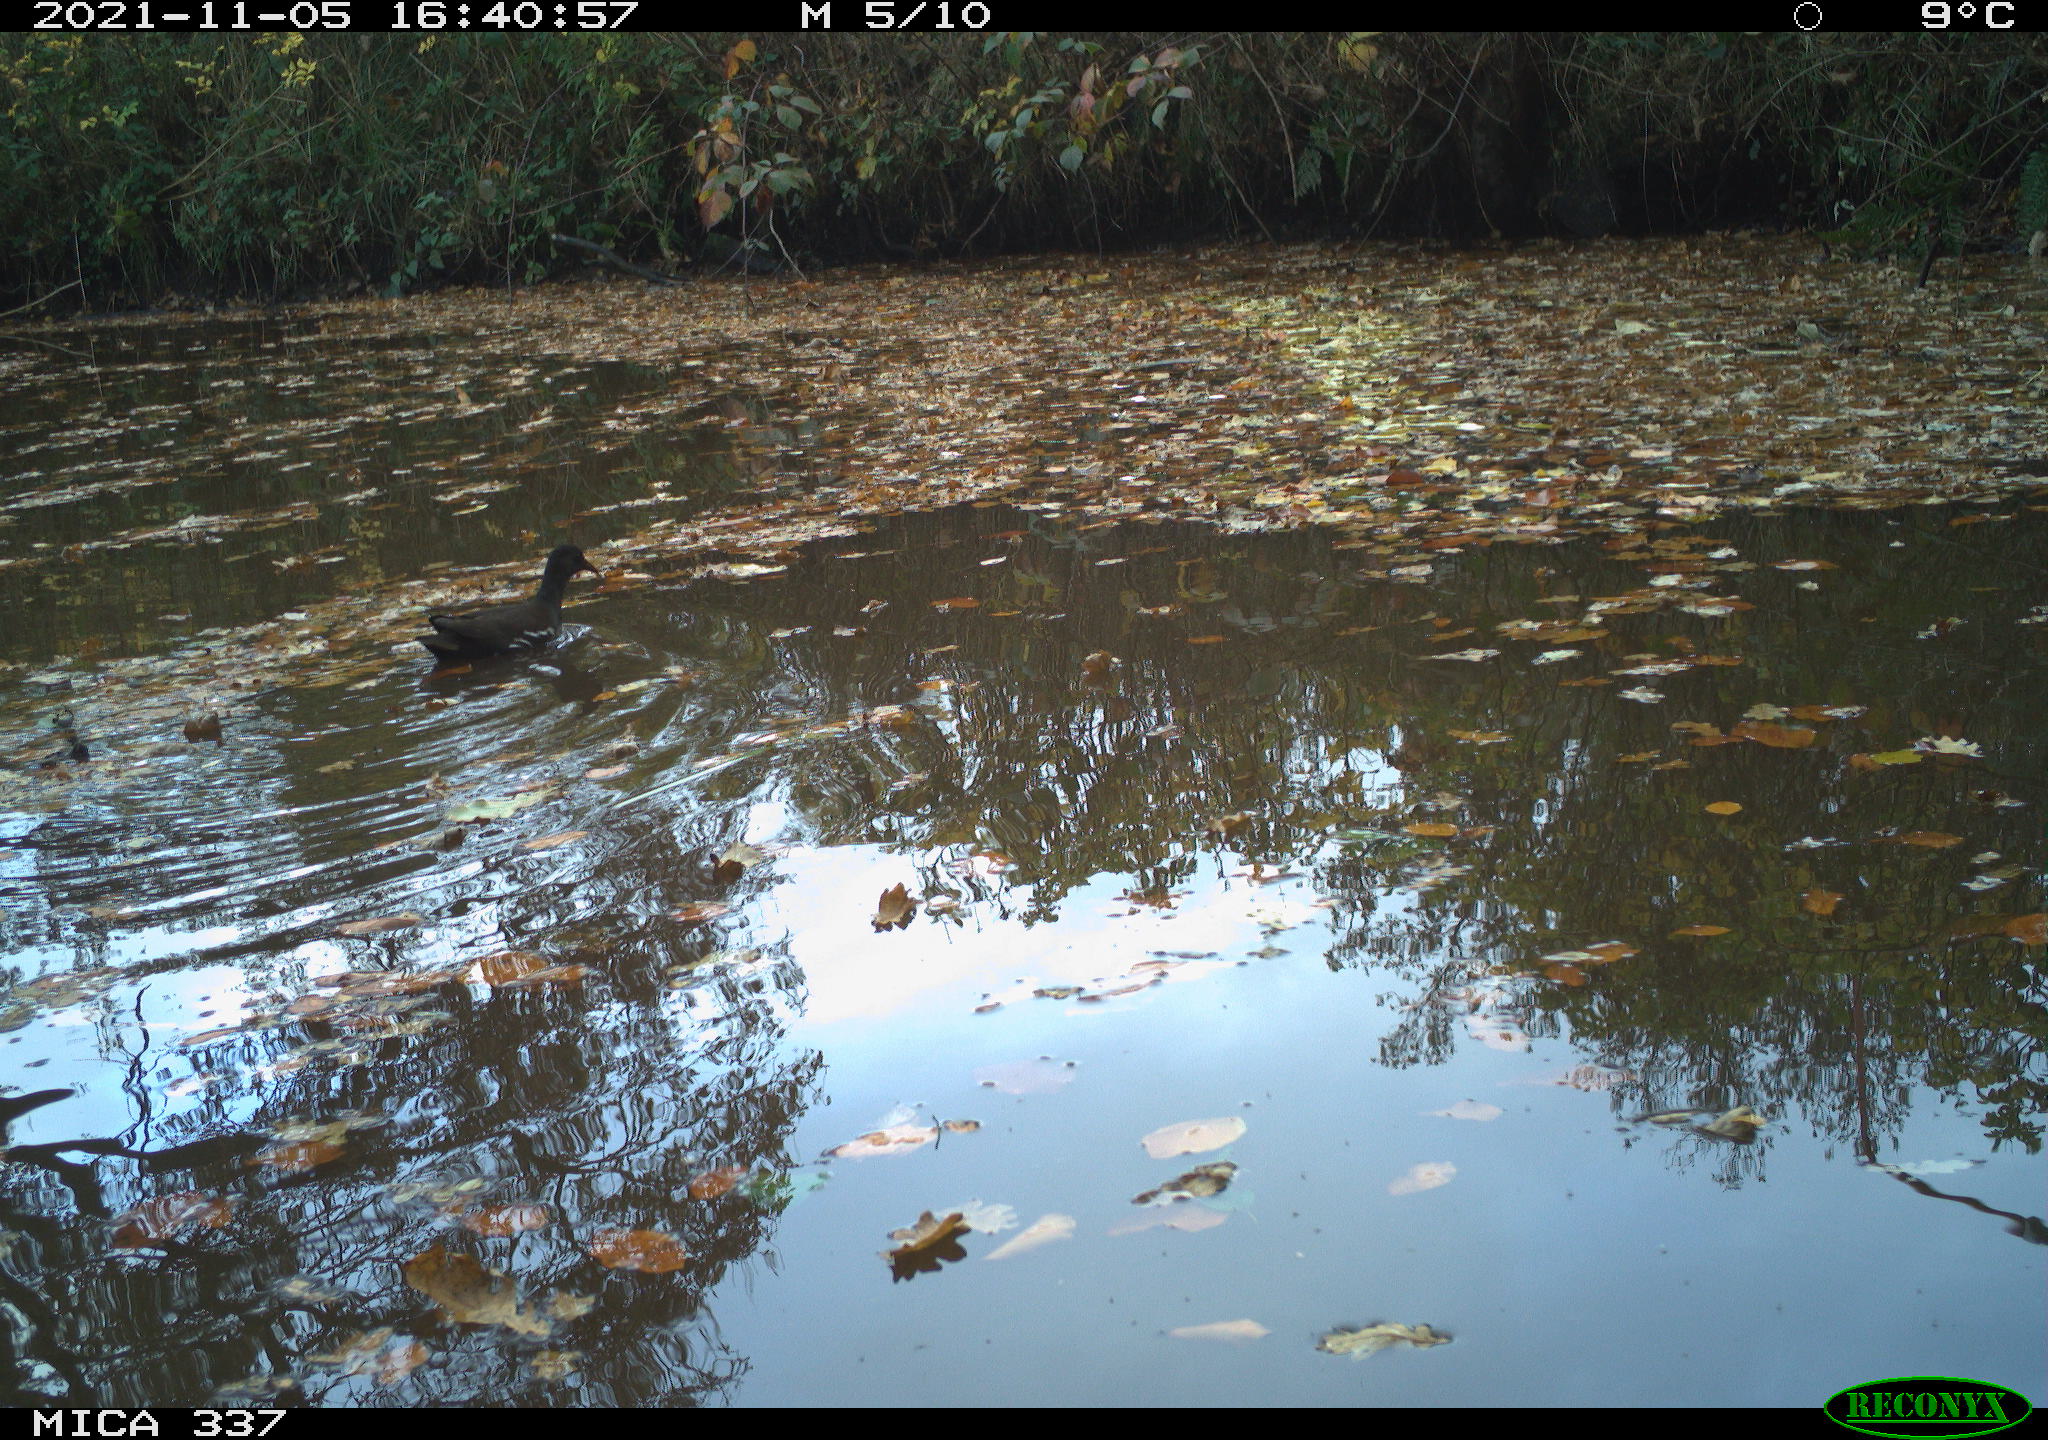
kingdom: Animalia
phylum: Chordata
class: Aves
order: Gruiformes
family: Rallidae
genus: Gallinula
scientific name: Gallinula chloropus
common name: Common moorhen
